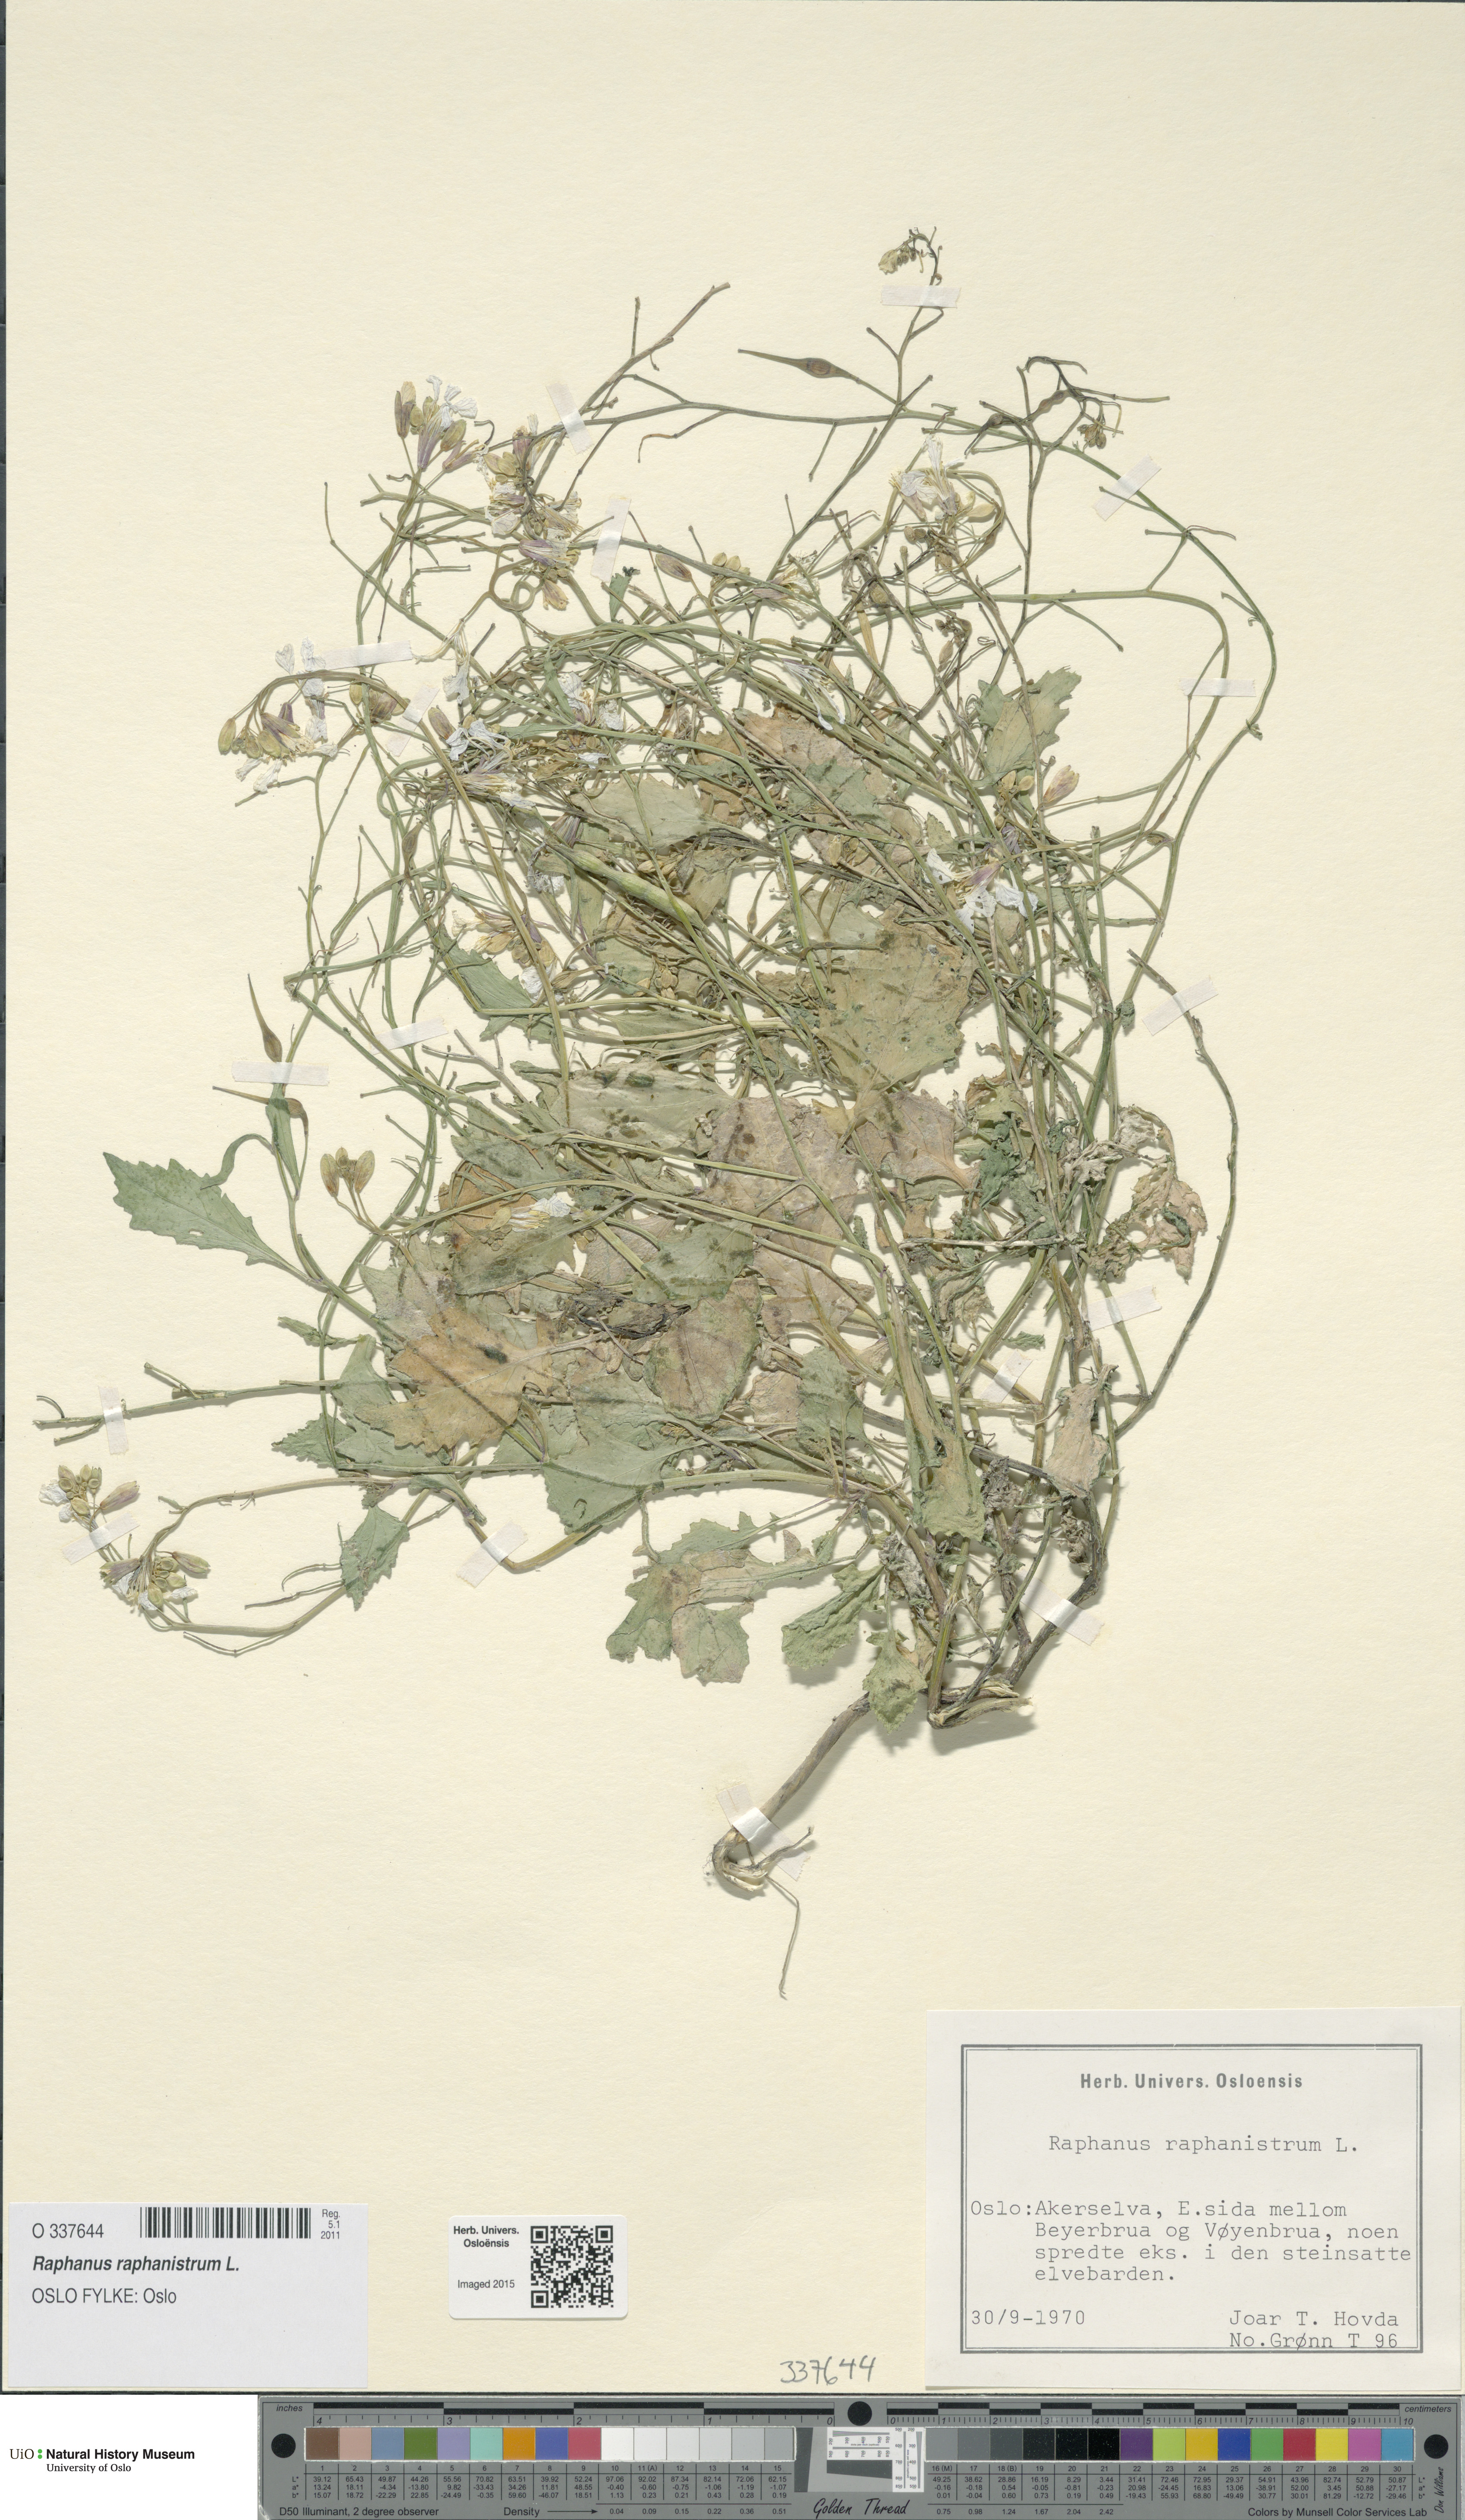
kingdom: Plantae
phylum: Tracheophyta
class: Magnoliopsida
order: Brassicales
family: Brassicaceae
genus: Raphanus
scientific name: Raphanus raphanistrum
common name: Wild radish
